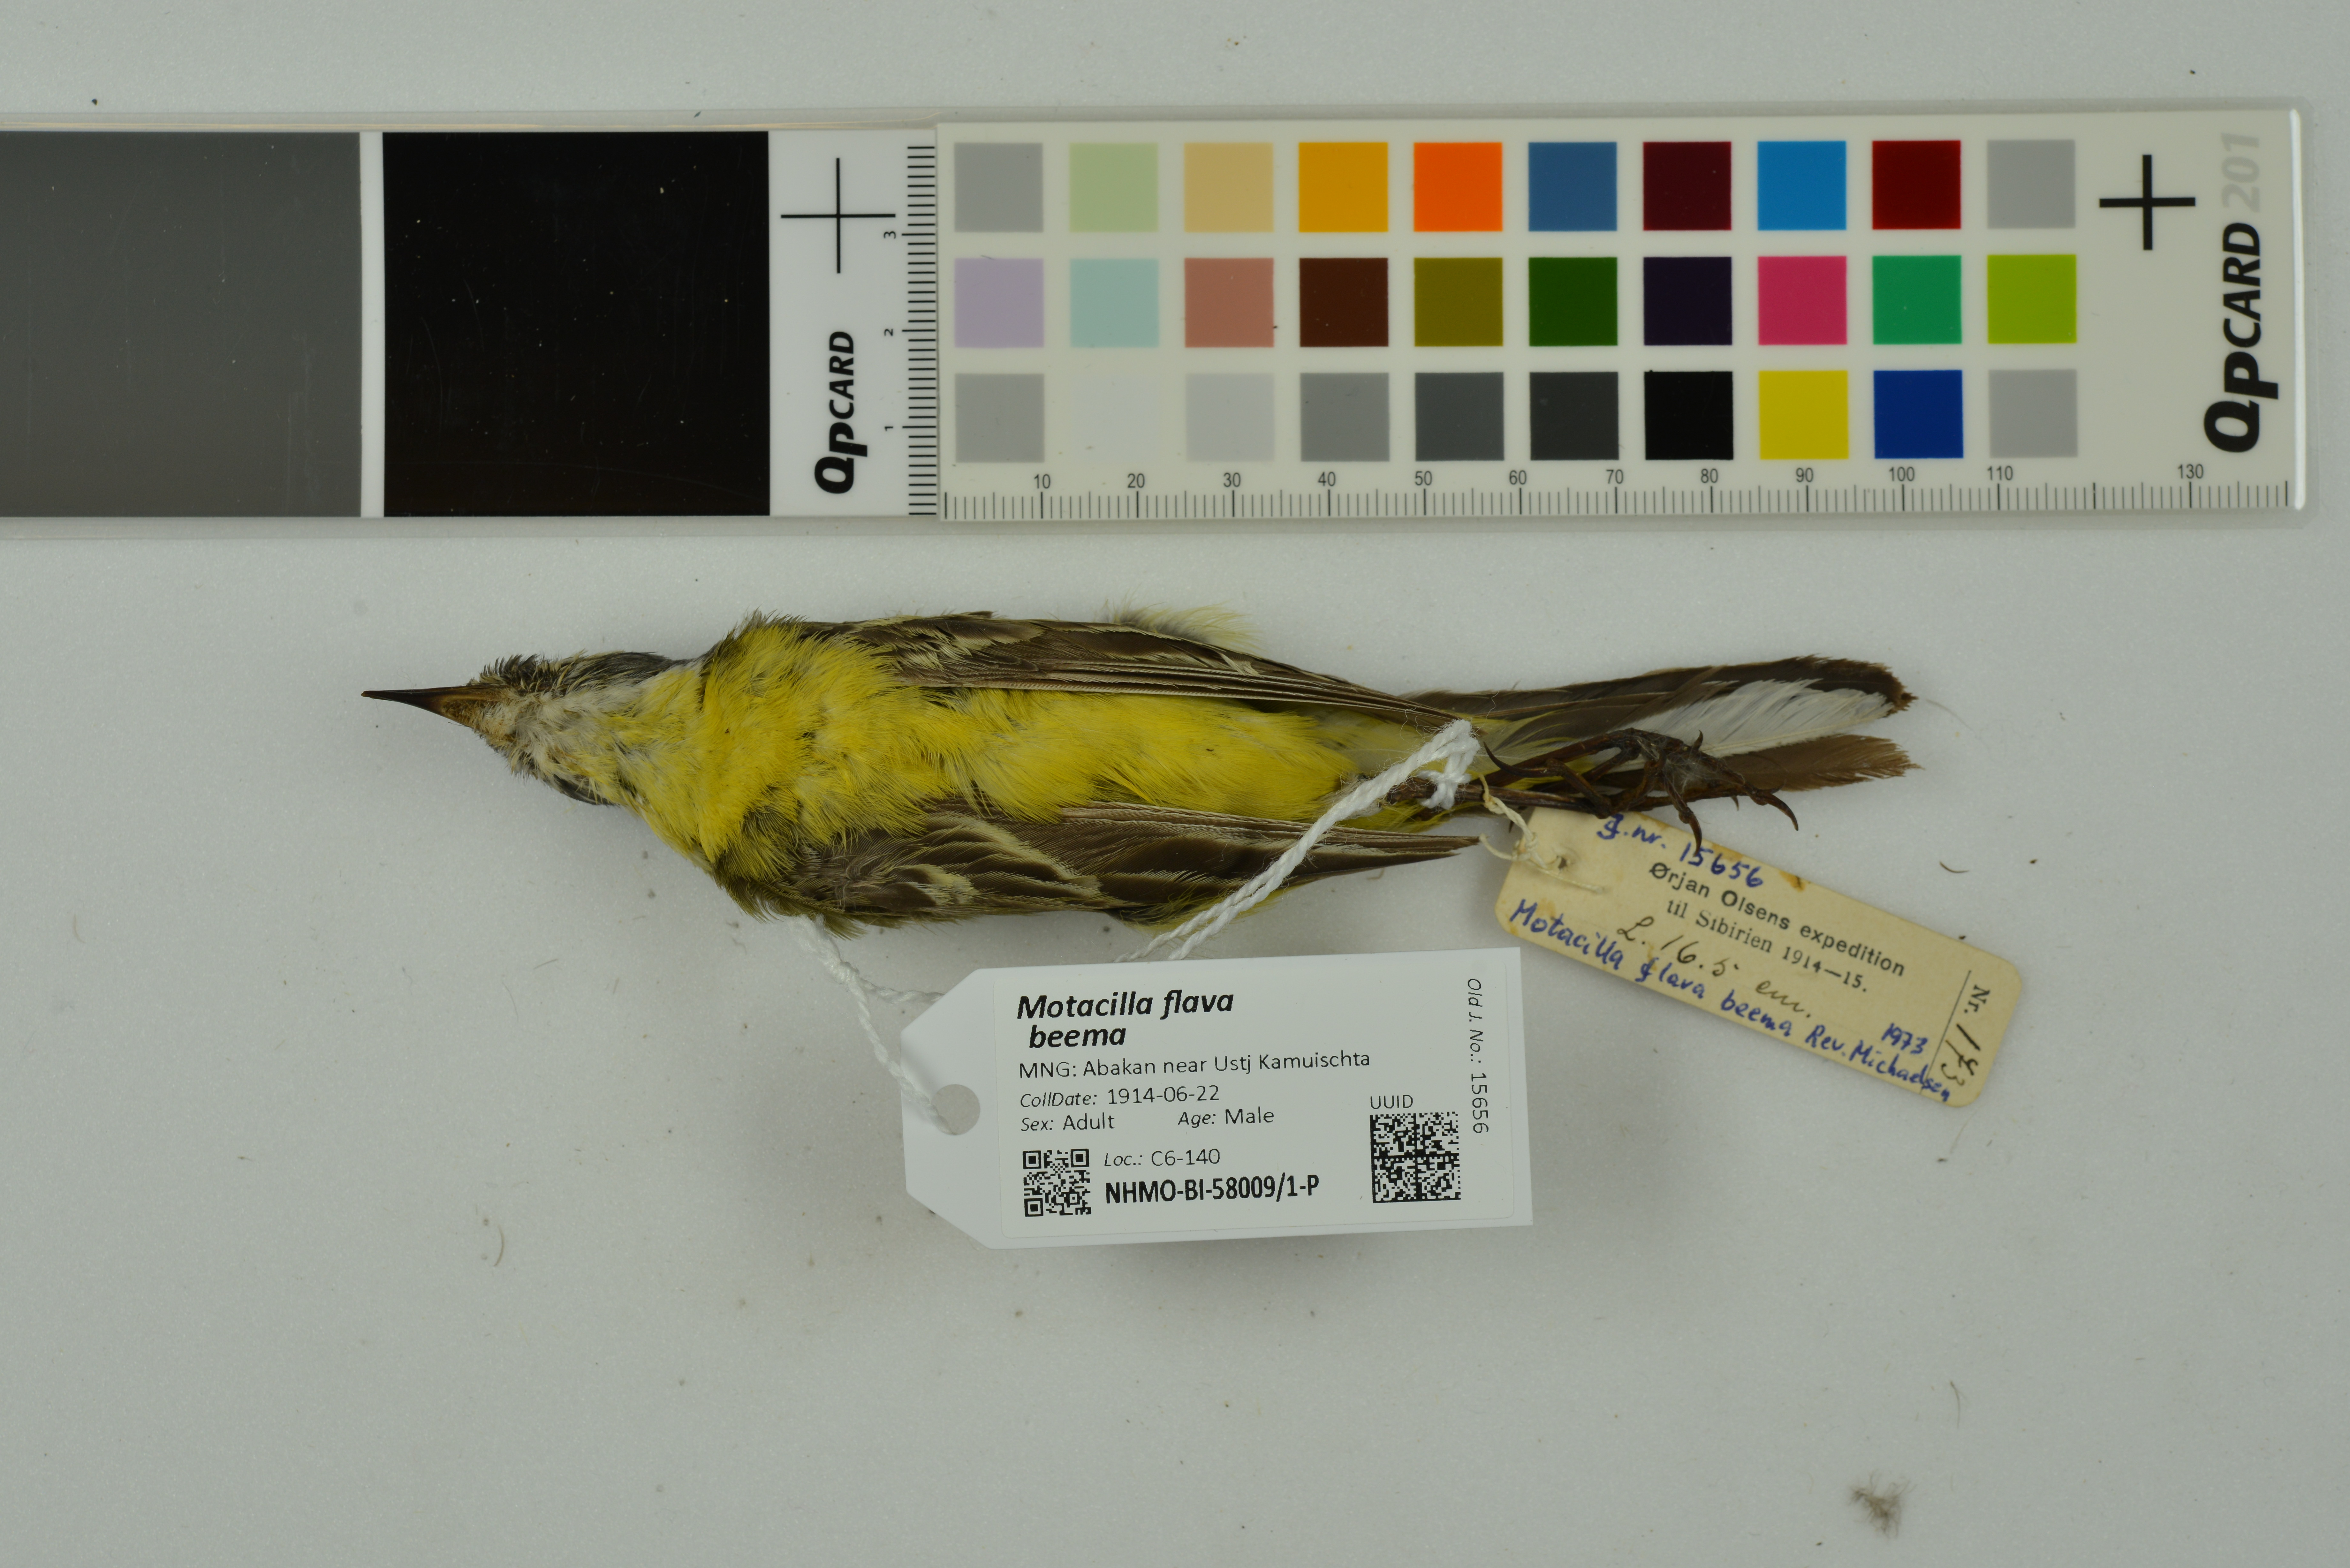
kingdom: Animalia
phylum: Chordata
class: Aves
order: Passeriformes
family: Motacillidae
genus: Motacilla
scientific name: Motacilla flava
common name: Western yellow wagtail
